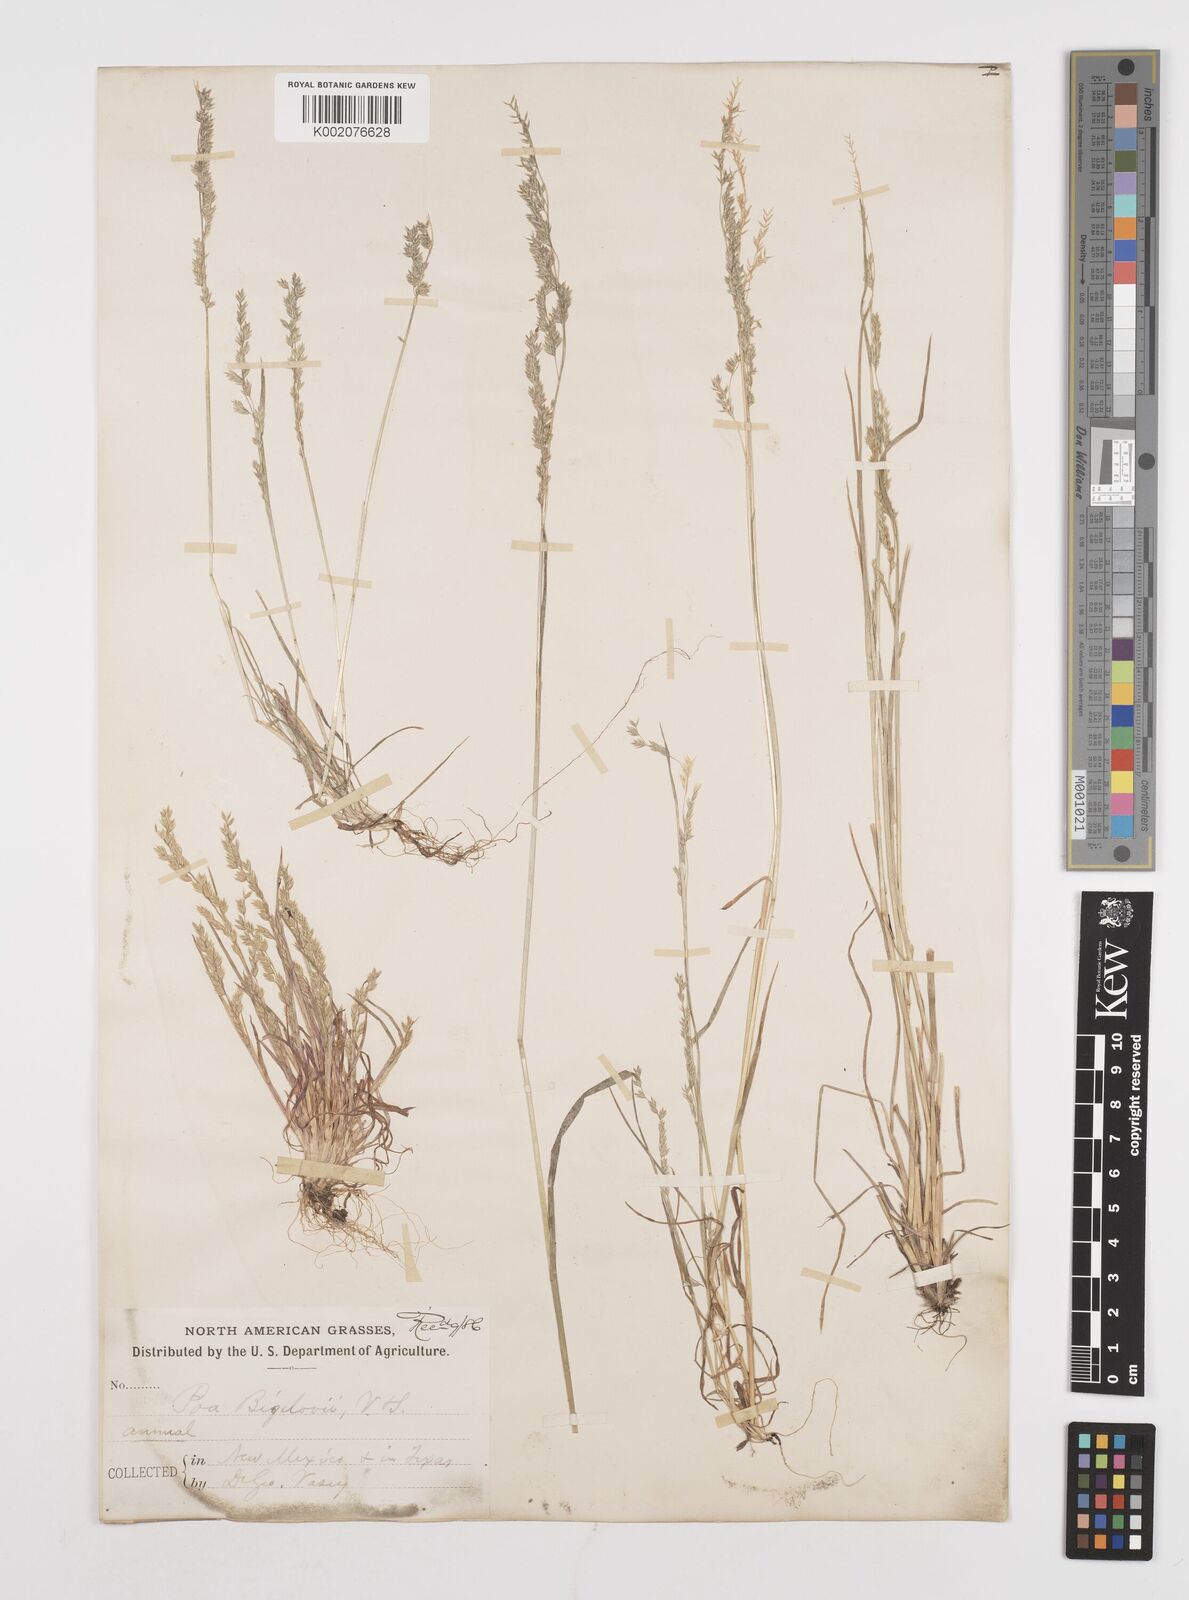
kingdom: Plantae
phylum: Tracheophyta
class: Liliopsida
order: Poales
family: Poaceae
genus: Poa
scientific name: Poa bigelovii
